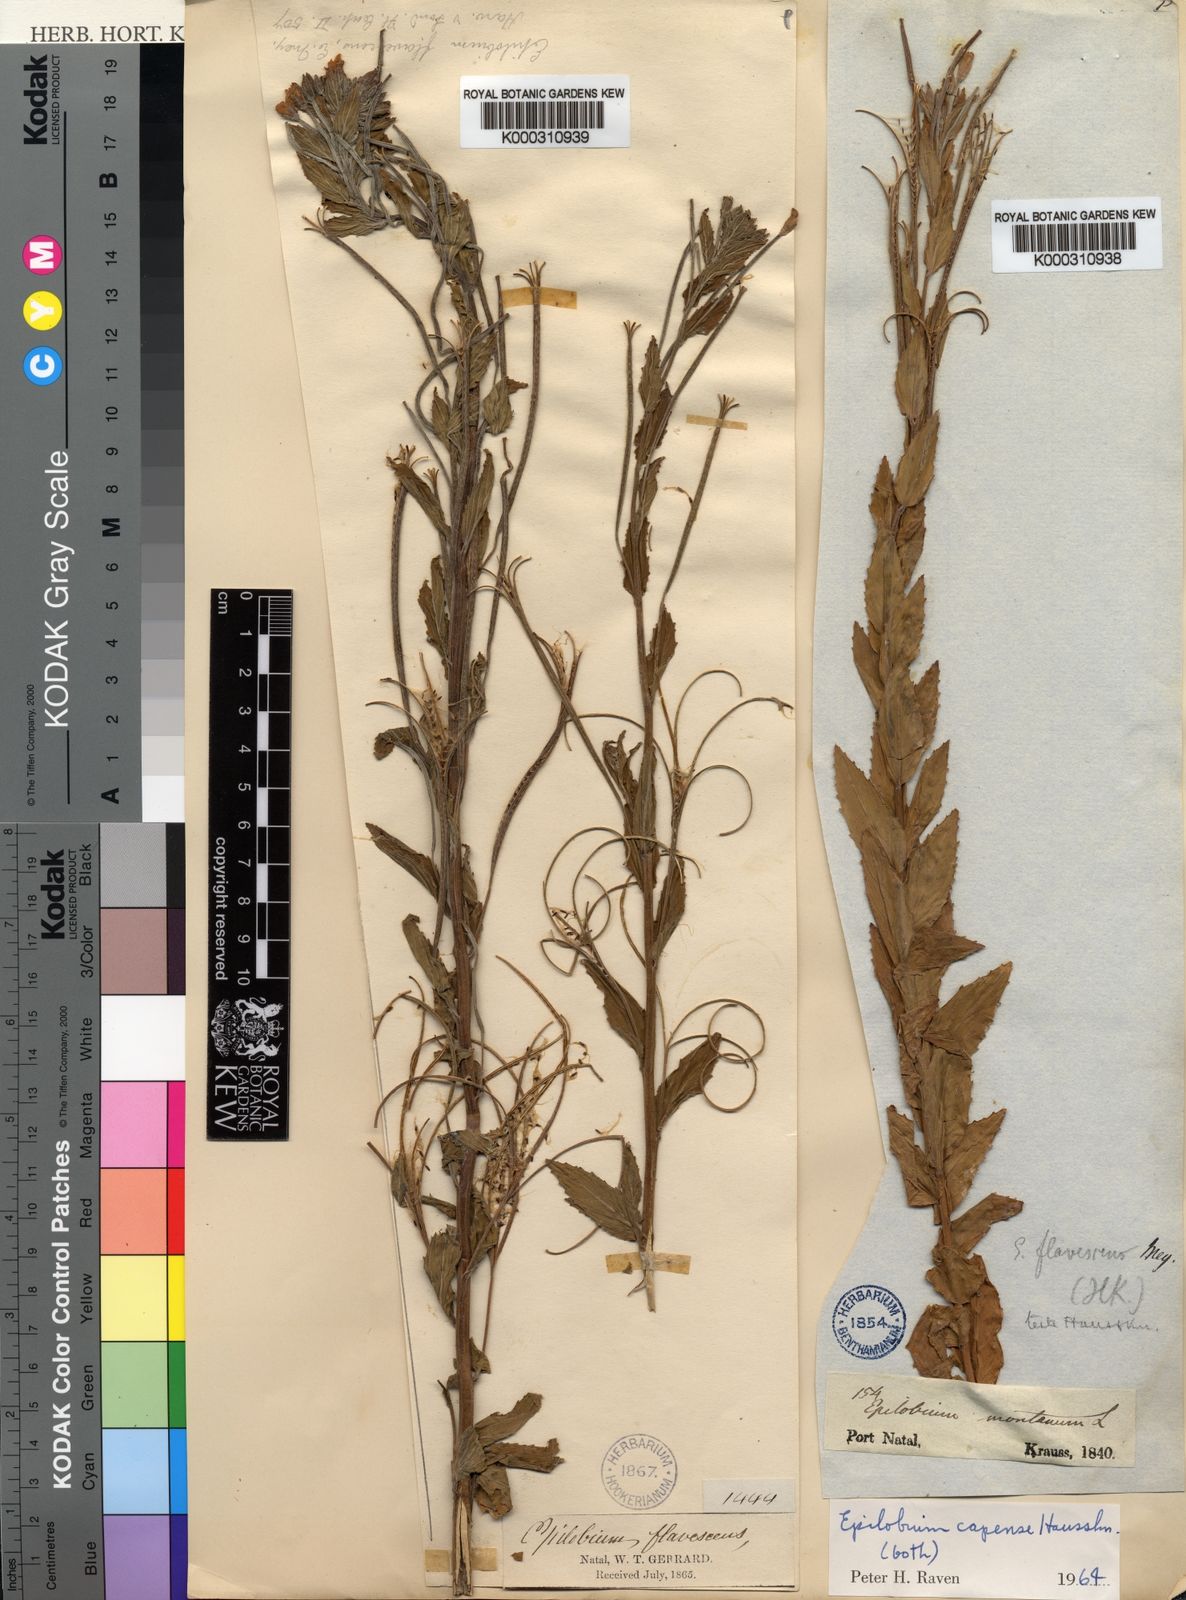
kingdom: Plantae
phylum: Tracheophyta
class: Magnoliopsida
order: Myrtales
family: Onagraceae
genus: Epilobium
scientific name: Epilobium
